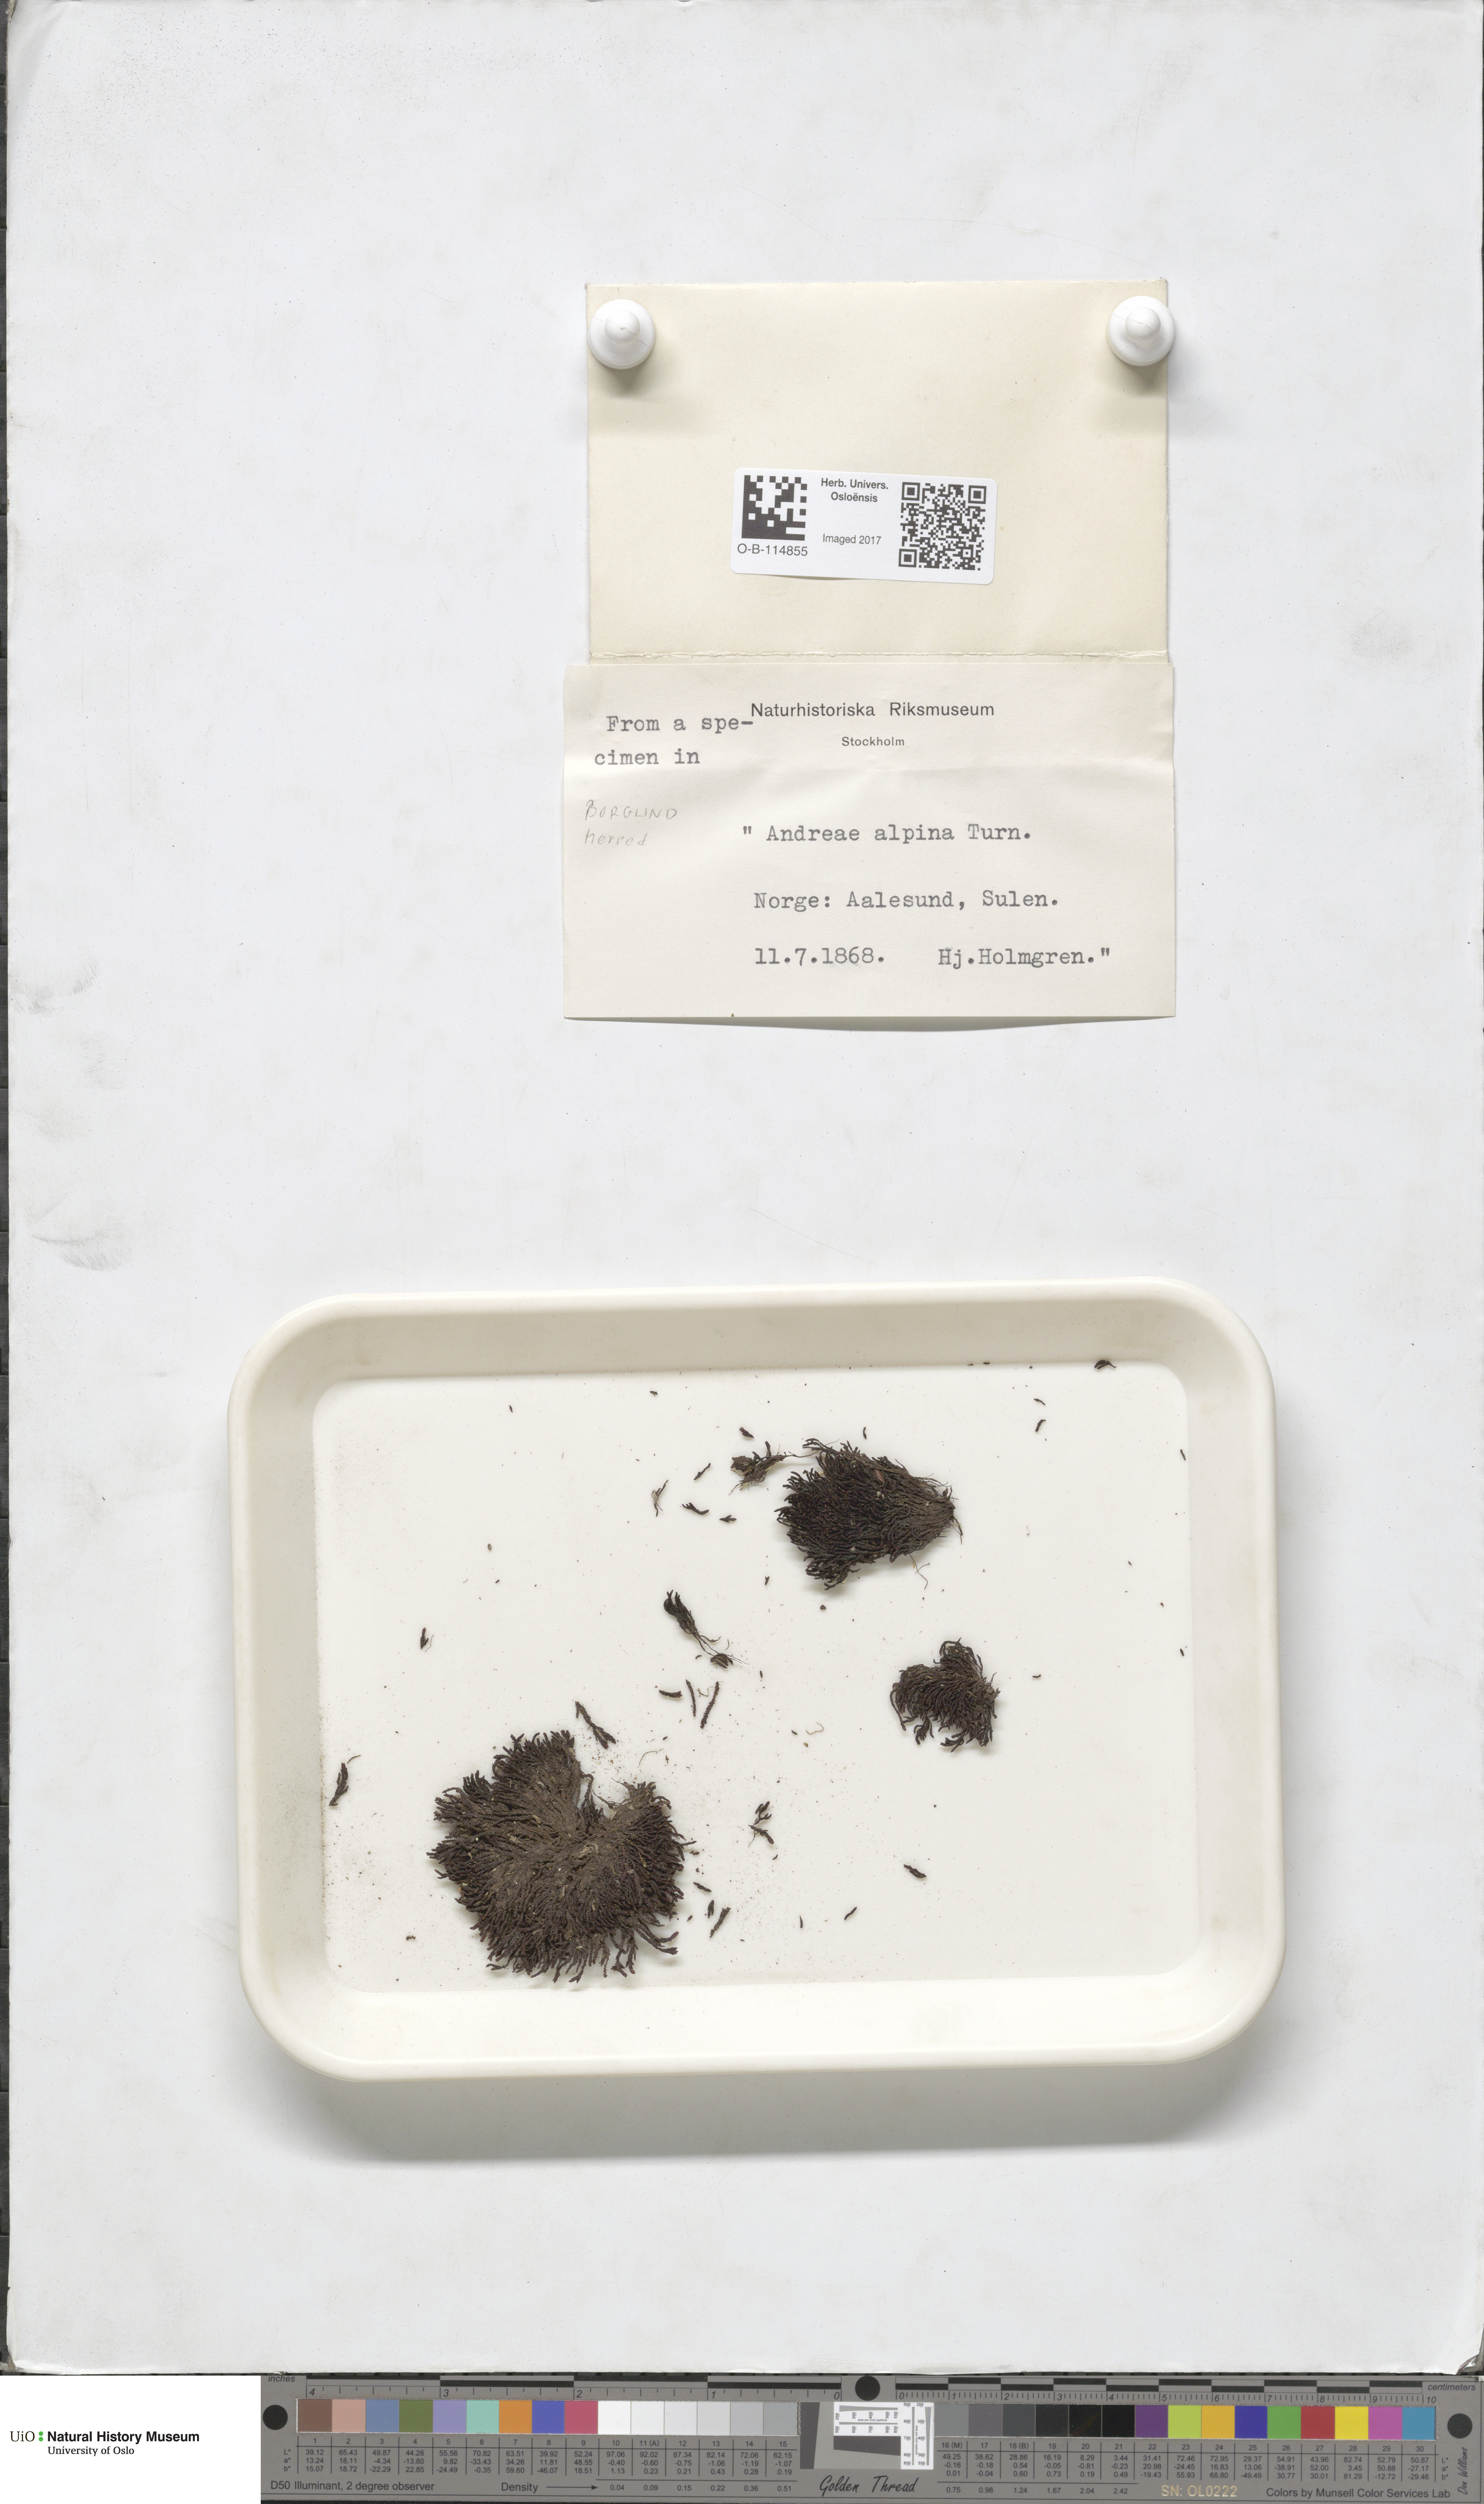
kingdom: Plantae
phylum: Bryophyta
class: Andreaeopsida
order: Andreaeales
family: Andreaeaceae
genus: Andreaea
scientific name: Andreaea hookeri
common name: Alpine rock-moss
